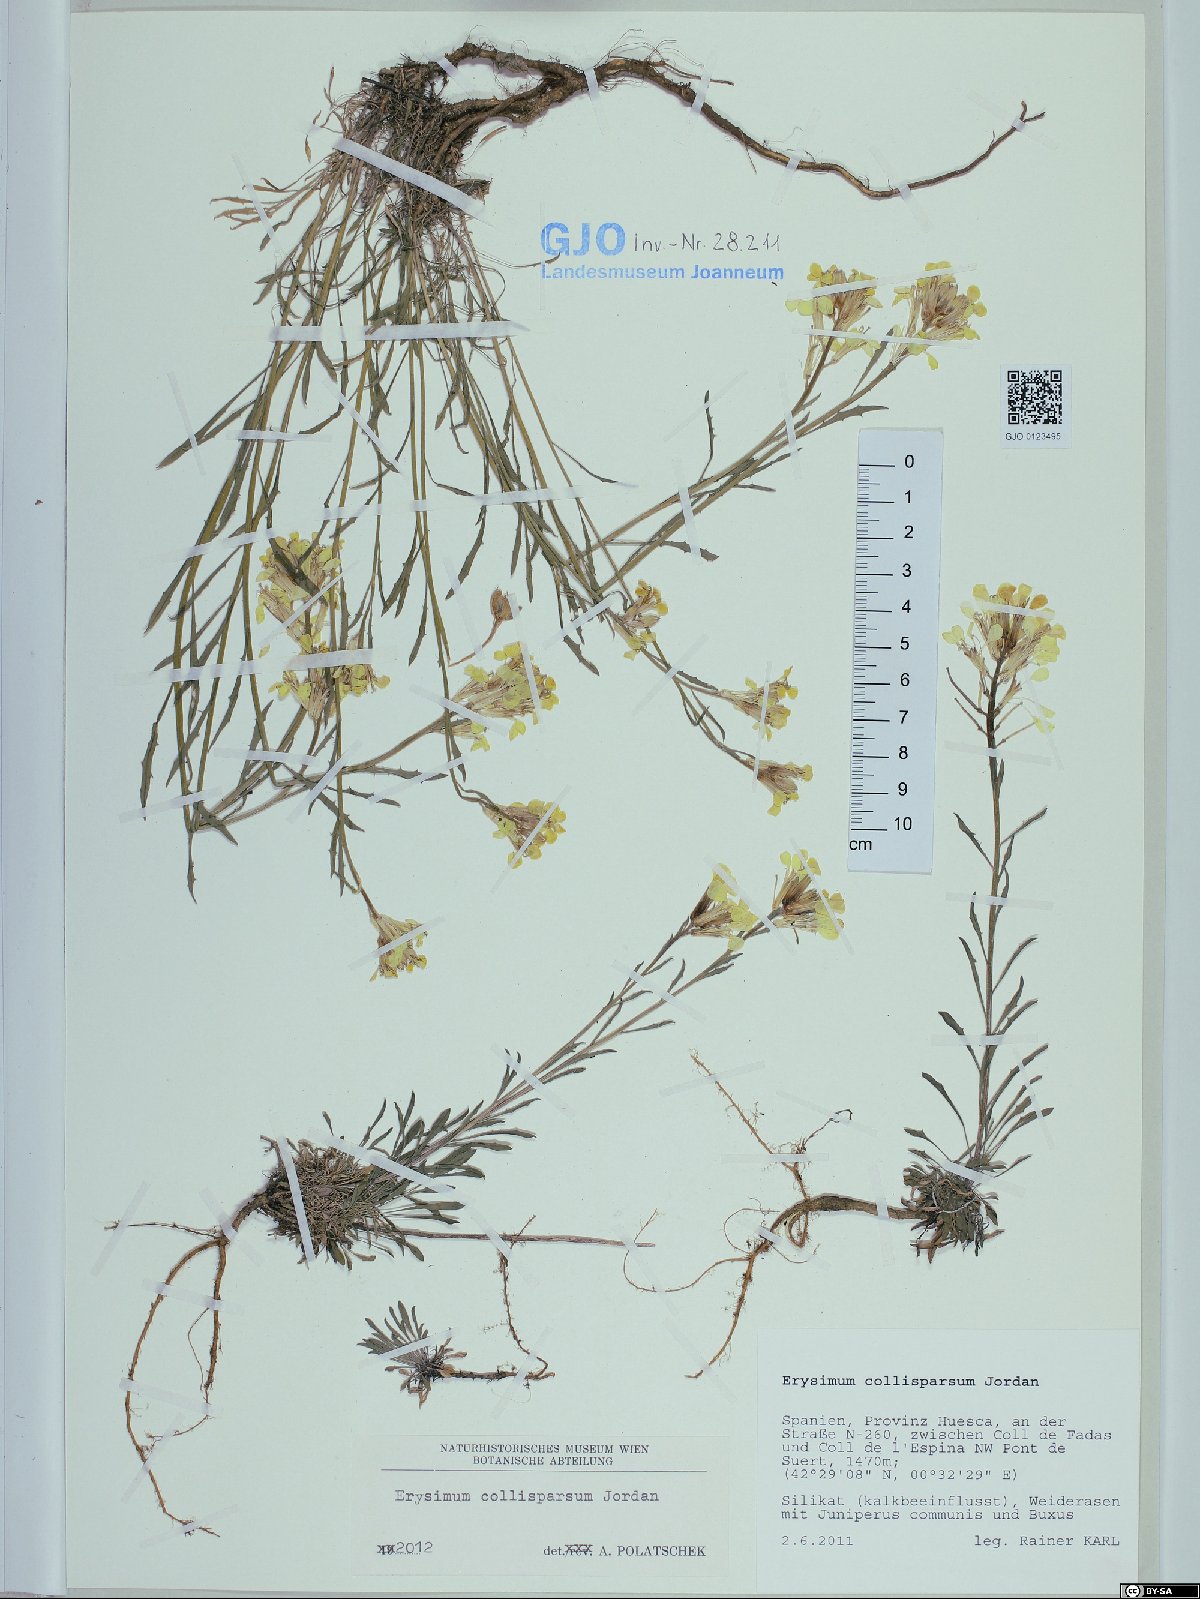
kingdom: Plantae
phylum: Tracheophyta
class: Magnoliopsida
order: Brassicales
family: Brassicaceae
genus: Erysimum
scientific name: Erysimum collisparsum
